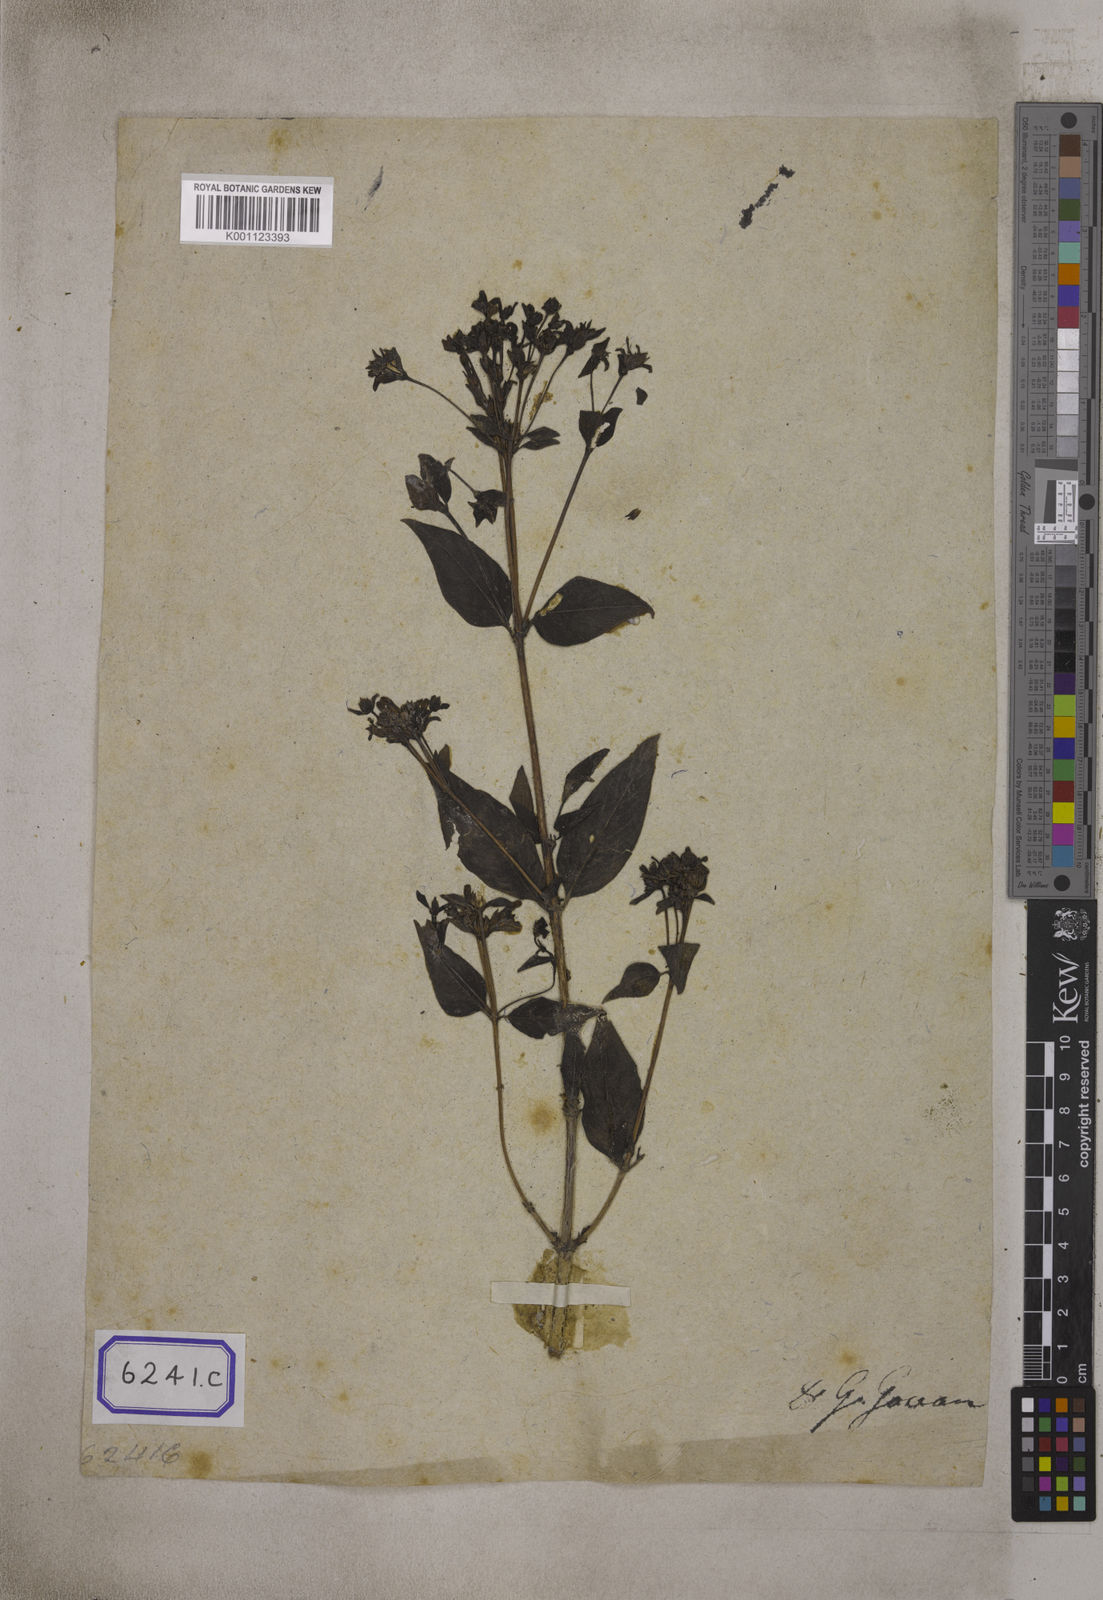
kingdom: Plantae
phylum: Tracheophyta
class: Magnoliopsida
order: Gentianales
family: Rubiaceae
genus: Leptodermis
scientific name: Leptodermis lanceolata
